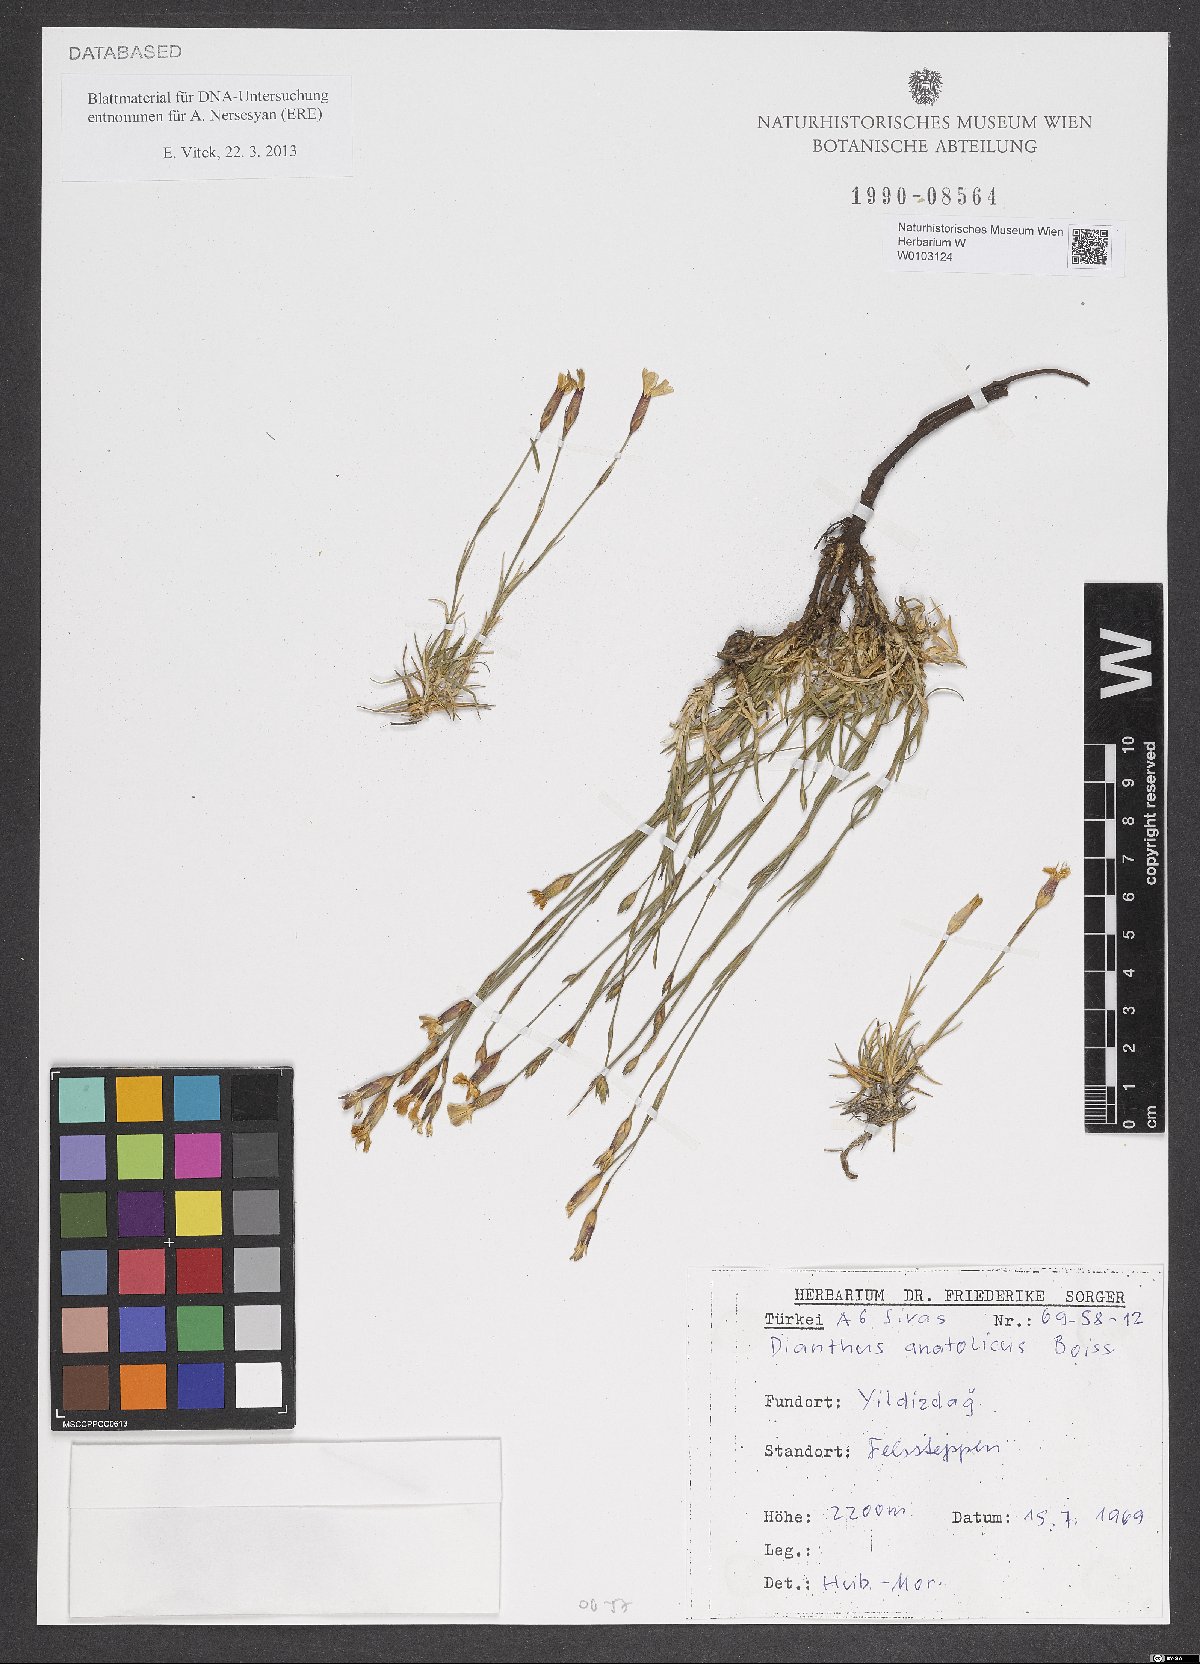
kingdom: Plantae
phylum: Tracheophyta
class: Magnoliopsida
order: Caryophyllales
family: Caryophyllaceae
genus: Dianthus
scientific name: Dianthus anatolicus
